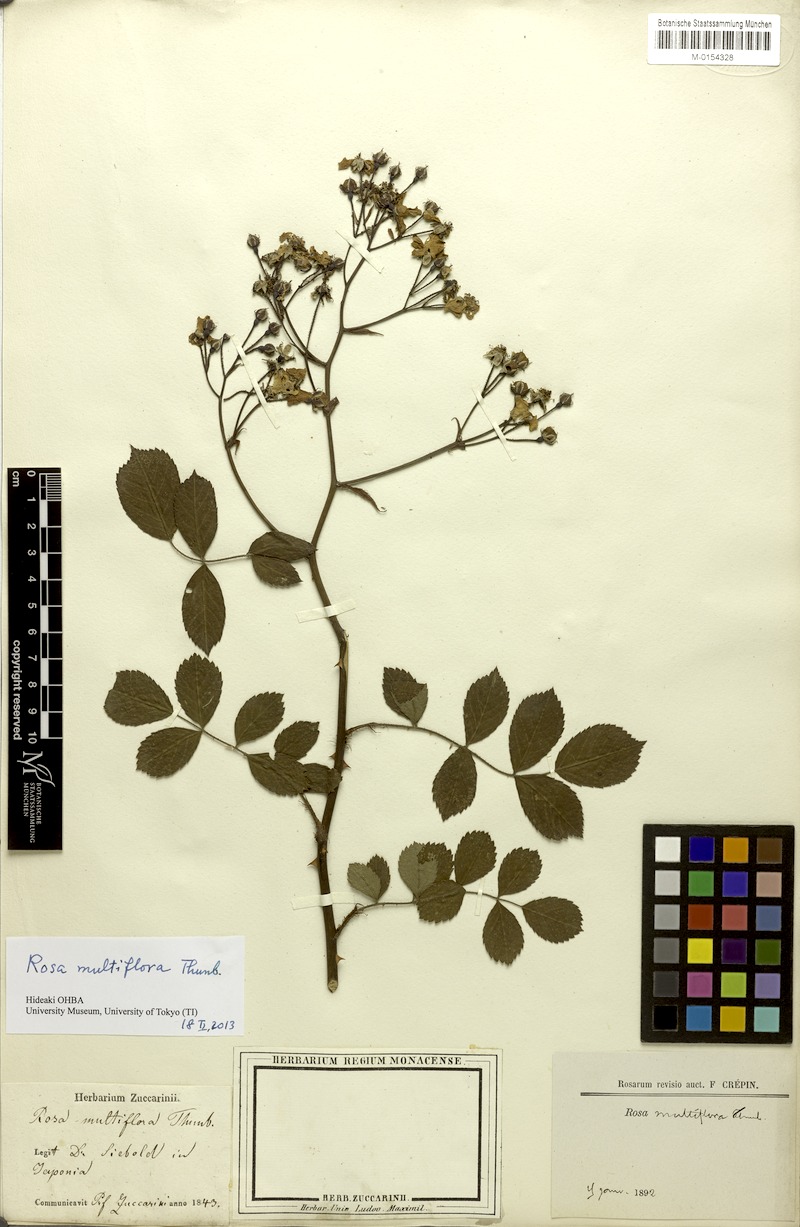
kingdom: Plantae
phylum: Tracheophyta
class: Magnoliopsida
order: Rosales
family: Rosaceae
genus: Rosa
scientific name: Rosa multiflora
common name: Multiflora rose
